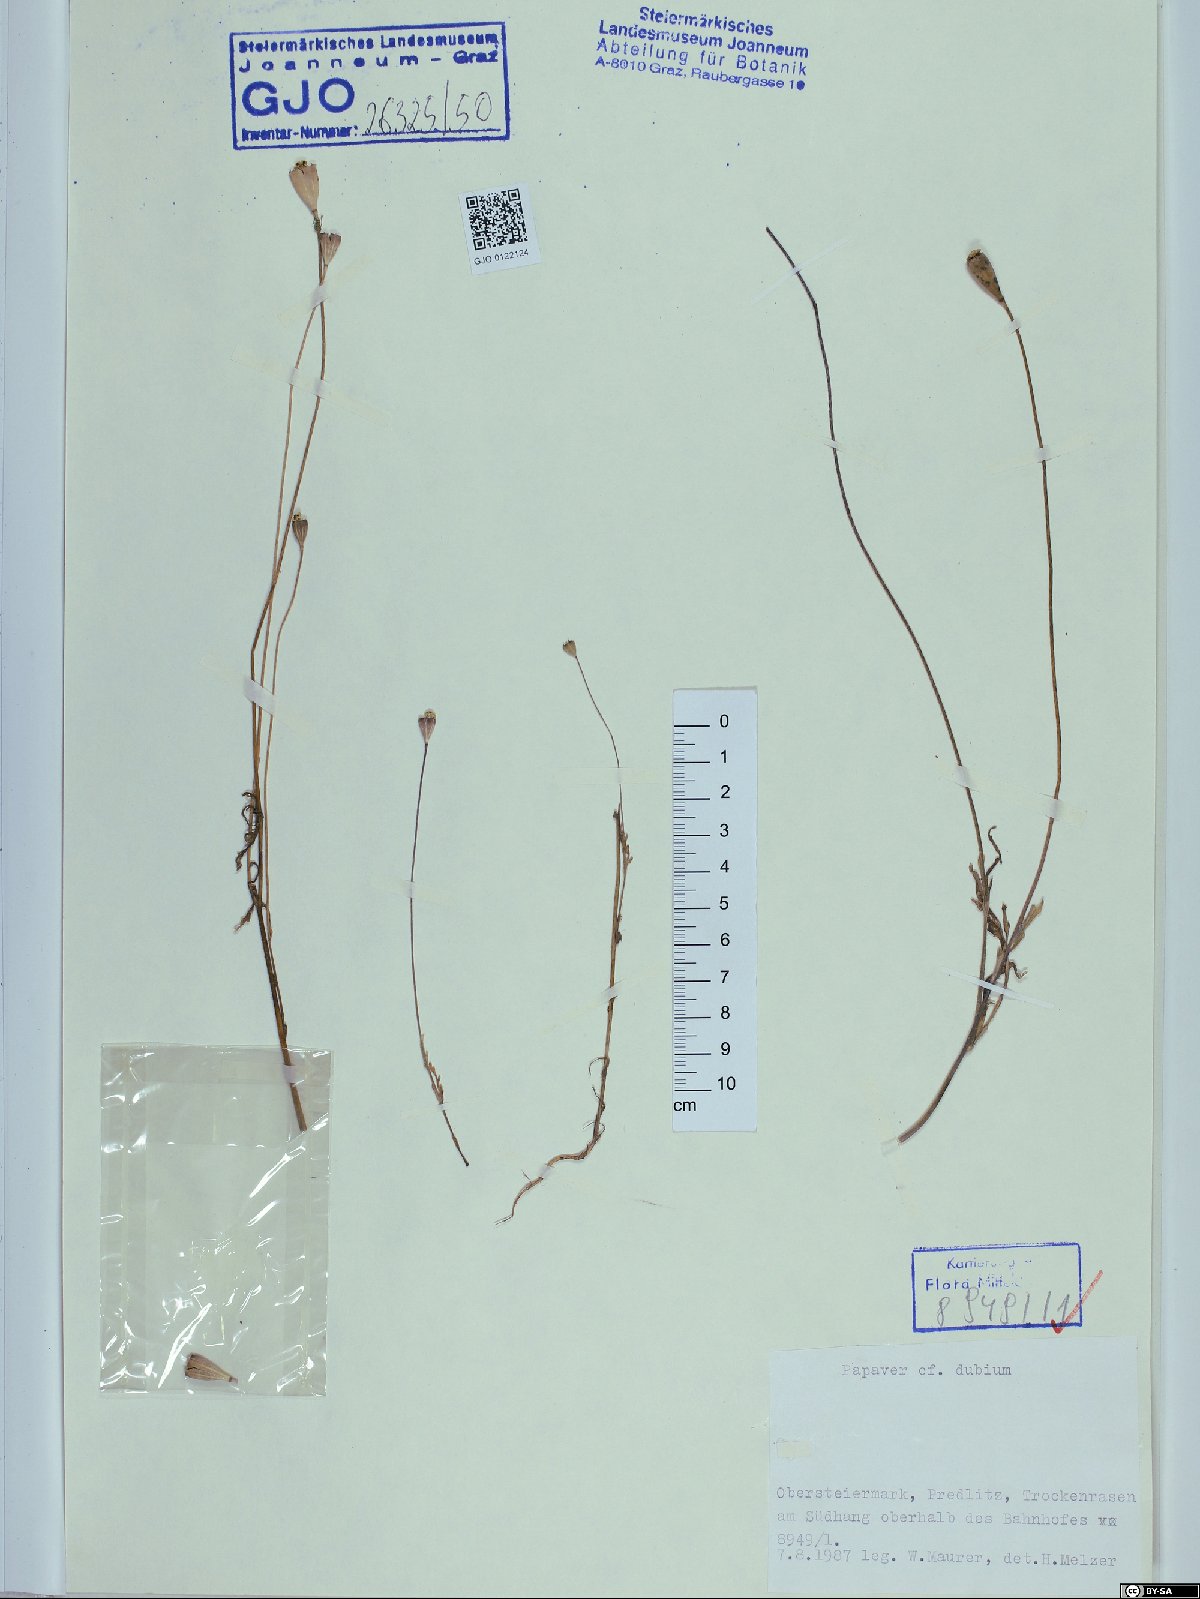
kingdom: Plantae
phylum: Tracheophyta
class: Magnoliopsida
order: Ranunculales
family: Papaveraceae
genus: Papaver
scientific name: Papaver dubium
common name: Long-headed poppy
